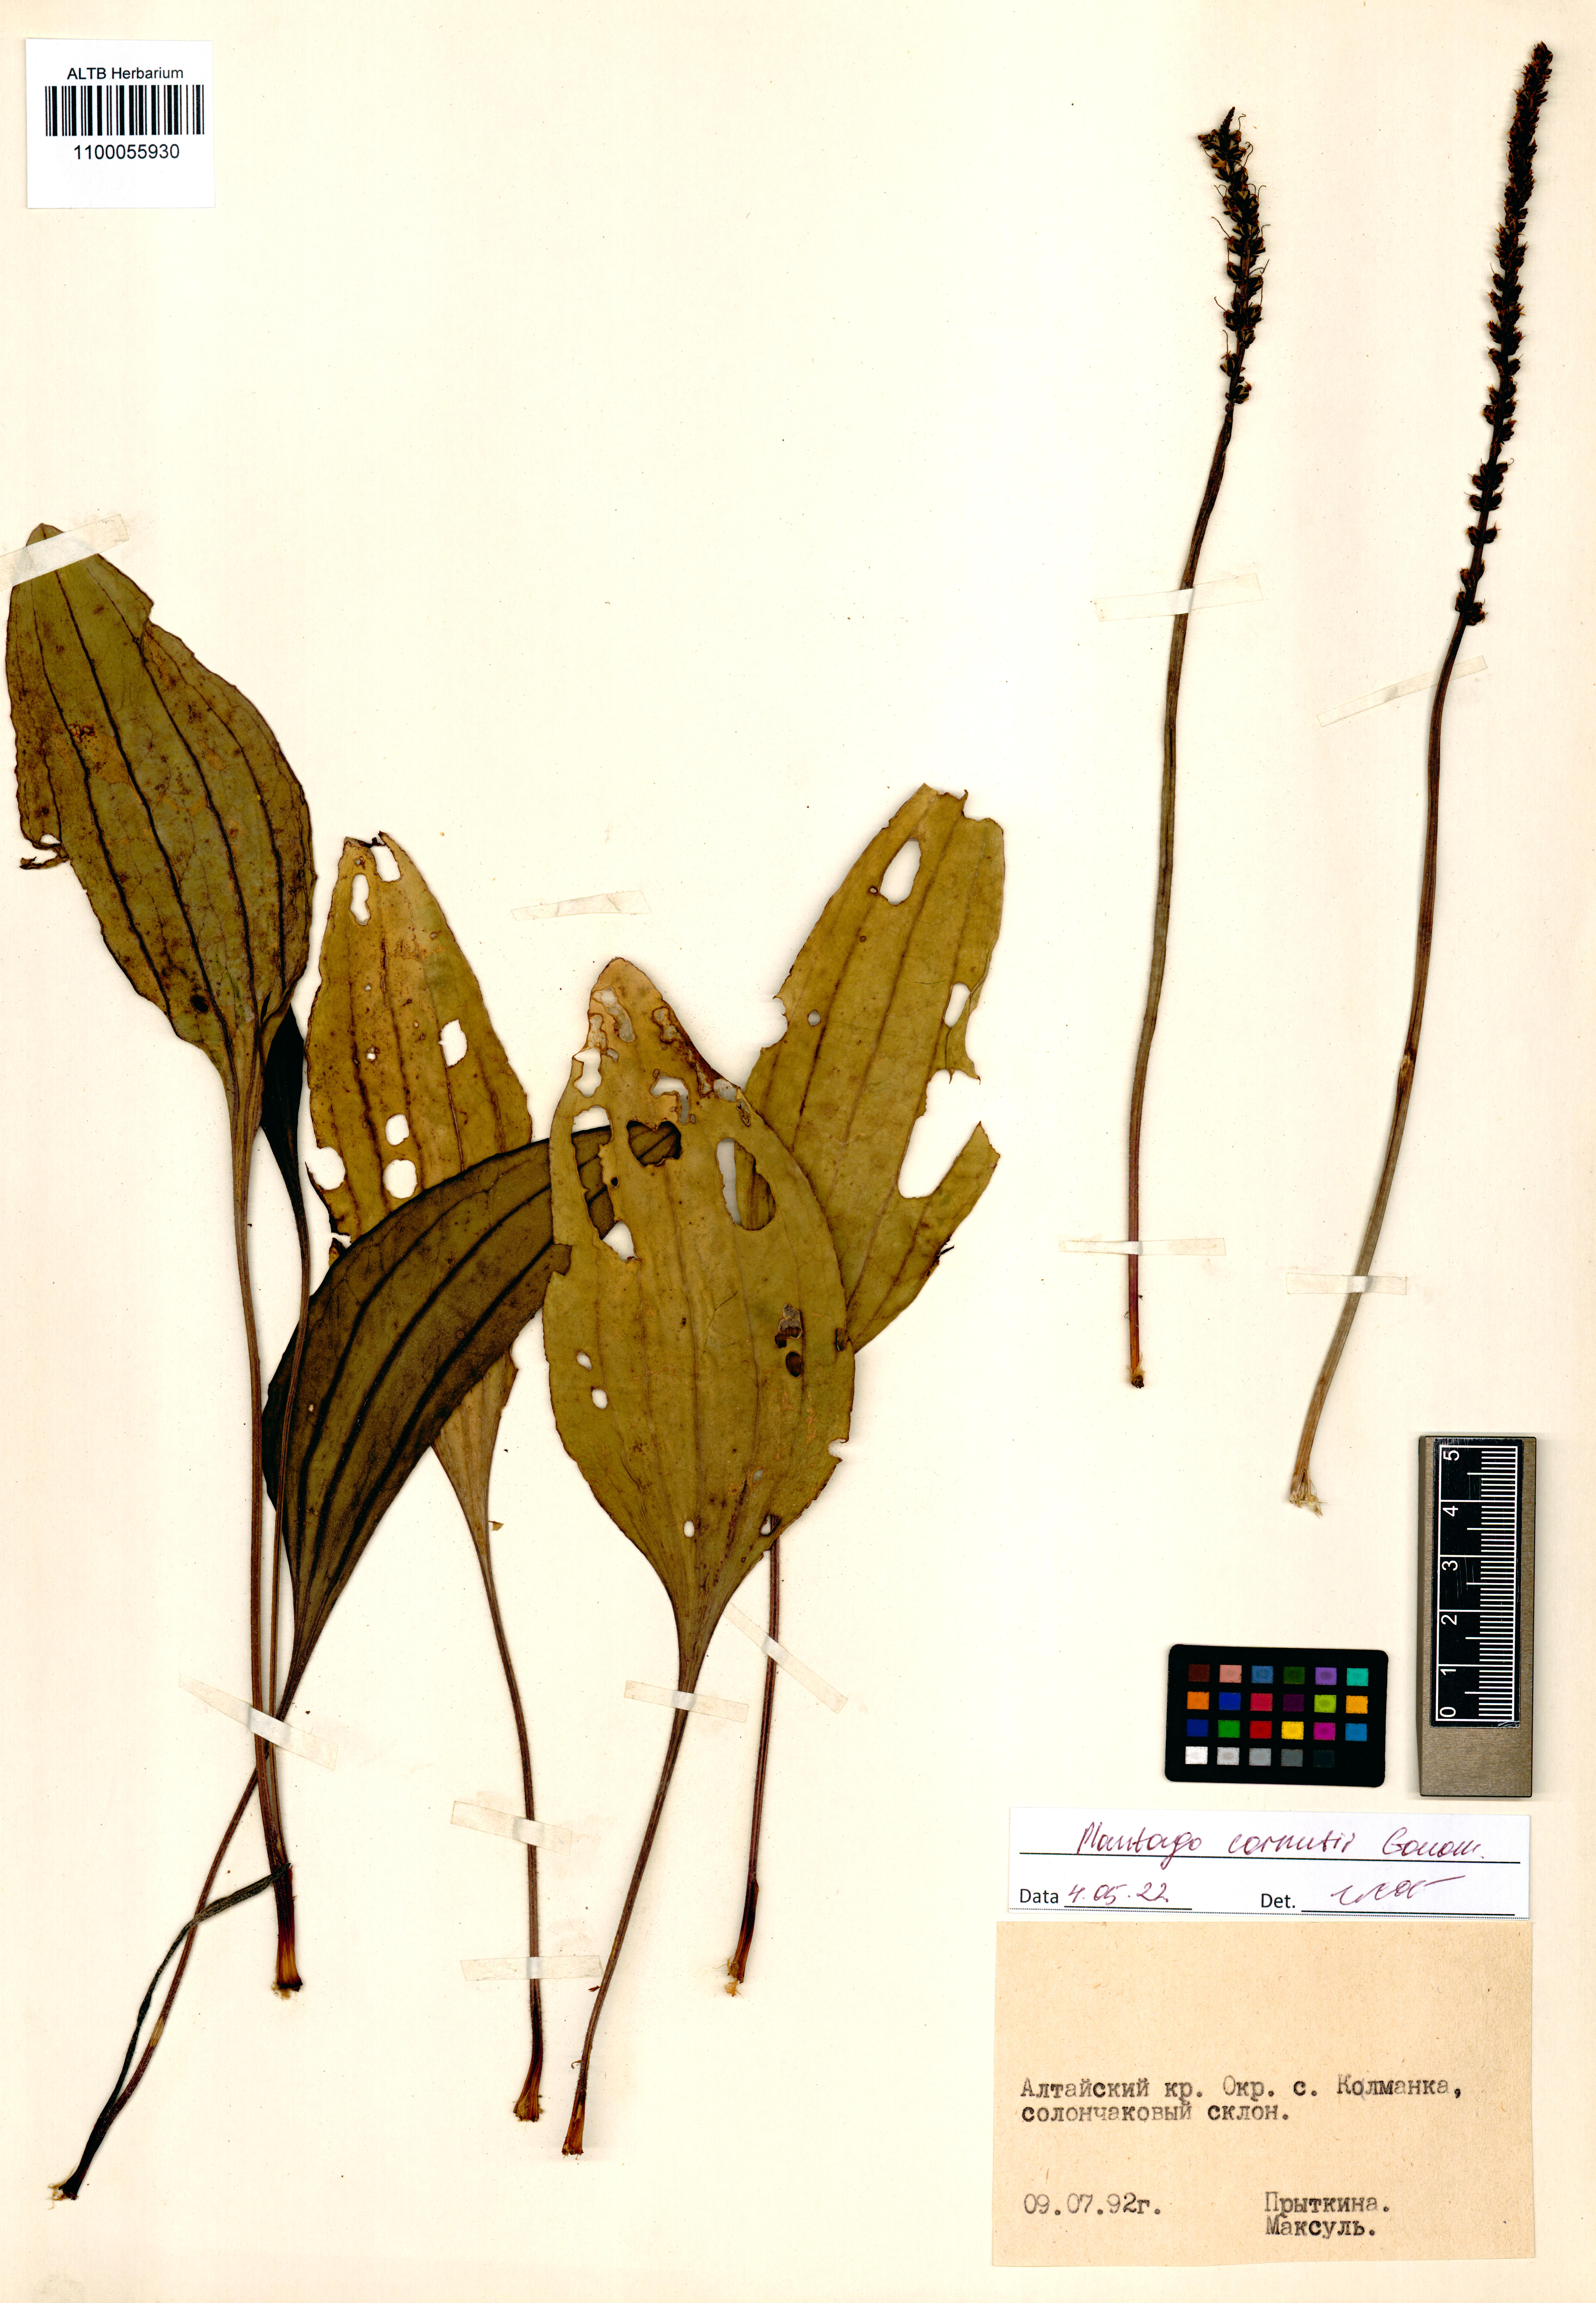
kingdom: Plantae
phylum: Tracheophyta
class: Magnoliopsida
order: Lamiales
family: Plantaginaceae
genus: Plantago
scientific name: Plantago cornuti
